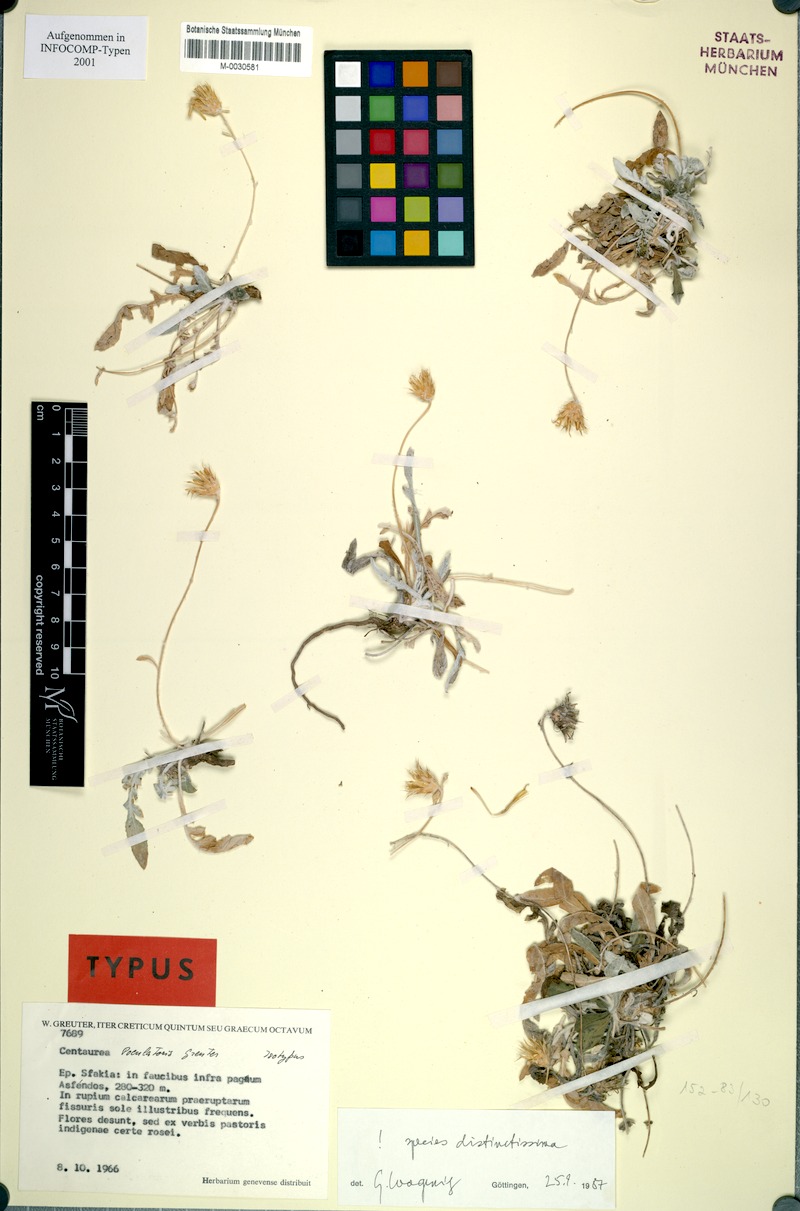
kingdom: Plantae
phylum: Tracheophyta
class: Magnoliopsida
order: Asterales
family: Asteraceae
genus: Centaurea
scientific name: Centaurea poculatoris
